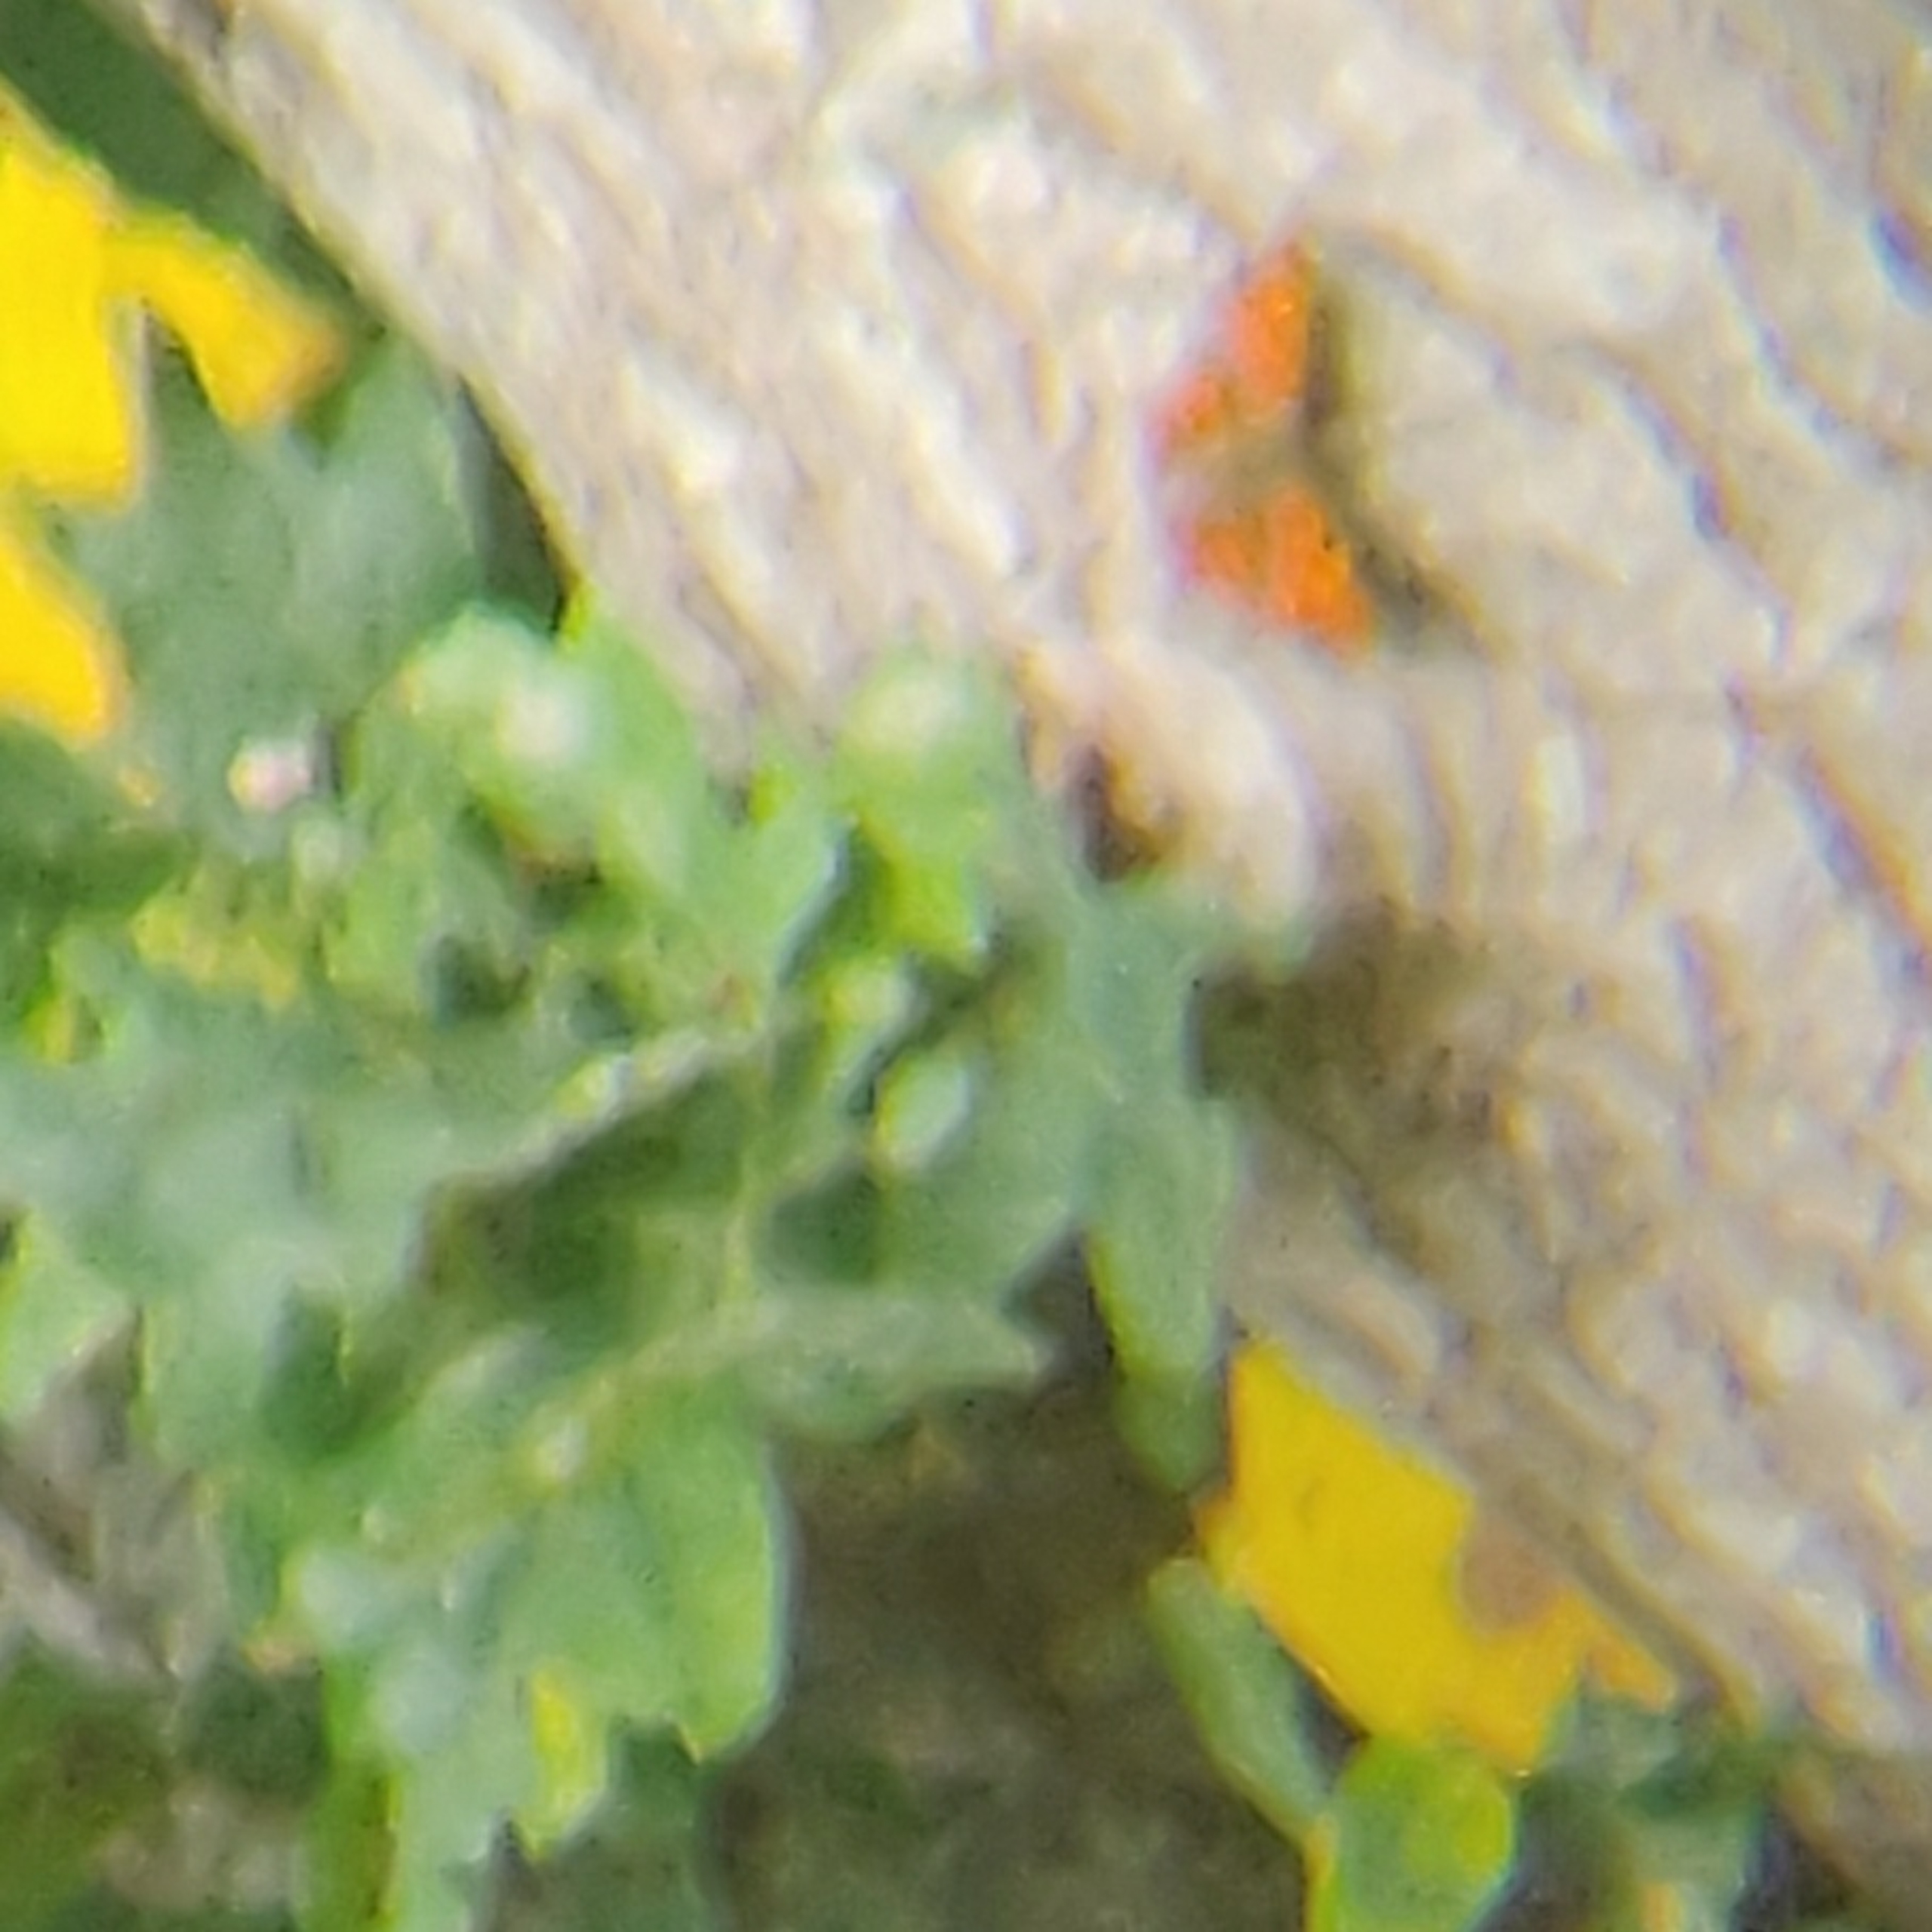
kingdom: Animalia
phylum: Arthropoda
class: Insecta
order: Lepidoptera
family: Nymphalidae
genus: Polygonia
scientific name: Polygonia c-album
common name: Det hvide C
